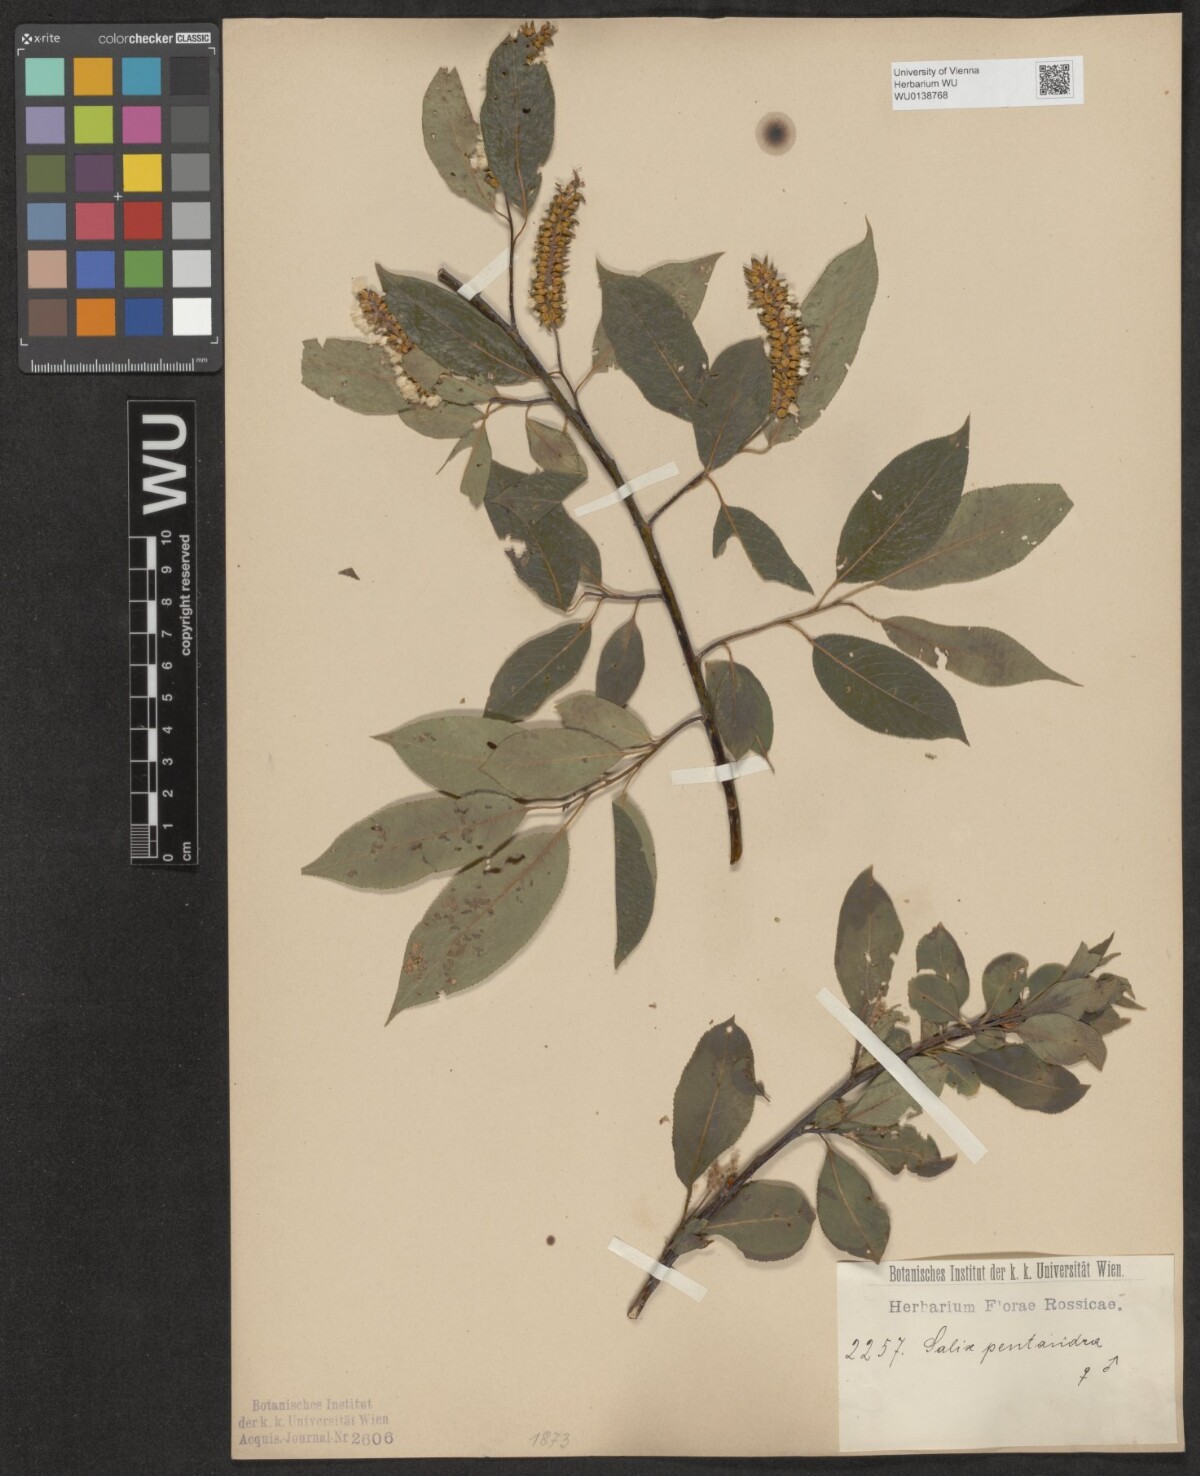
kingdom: Plantae
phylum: Tracheophyta
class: Magnoliopsida
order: Malpighiales
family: Salicaceae
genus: Salix
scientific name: Salix pentandra
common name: Bay willow
